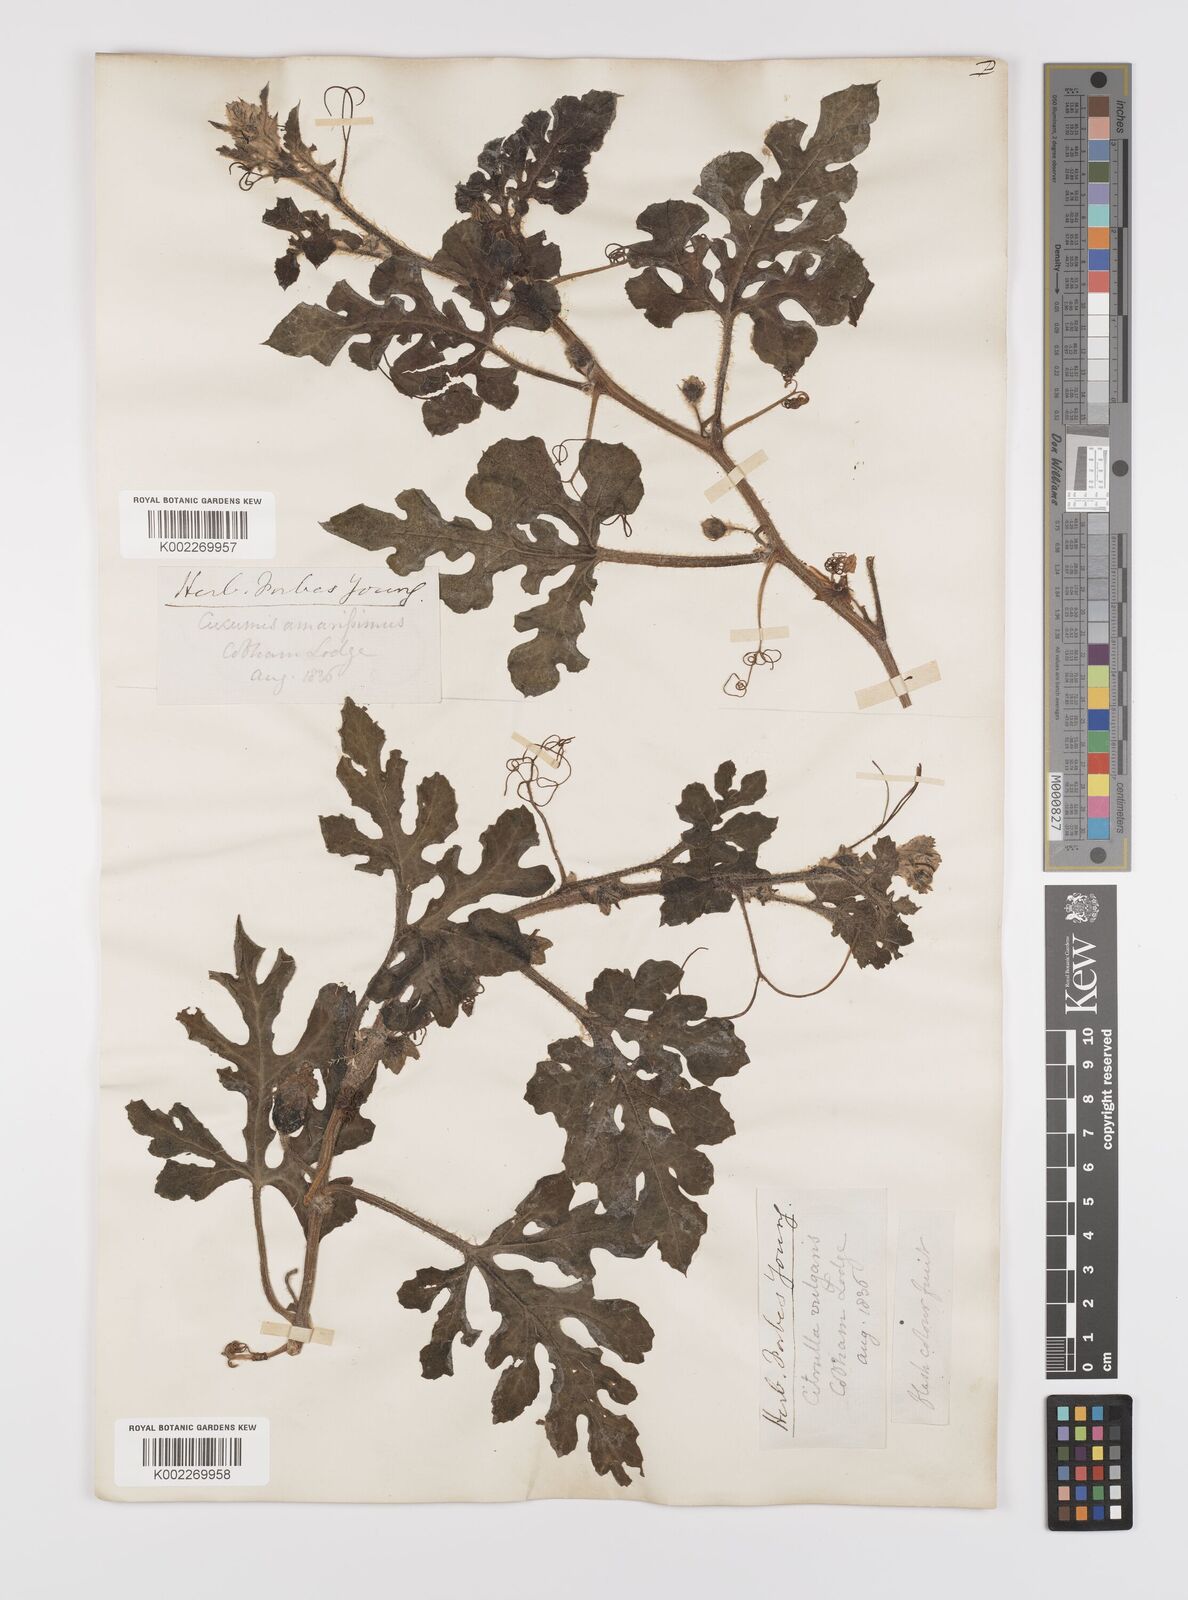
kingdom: Plantae
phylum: Tracheophyta
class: Magnoliopsida
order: Cucurbitales
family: Cucurbitaceae
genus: Citrullus
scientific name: Citrullus lanatus
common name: Watermelon
